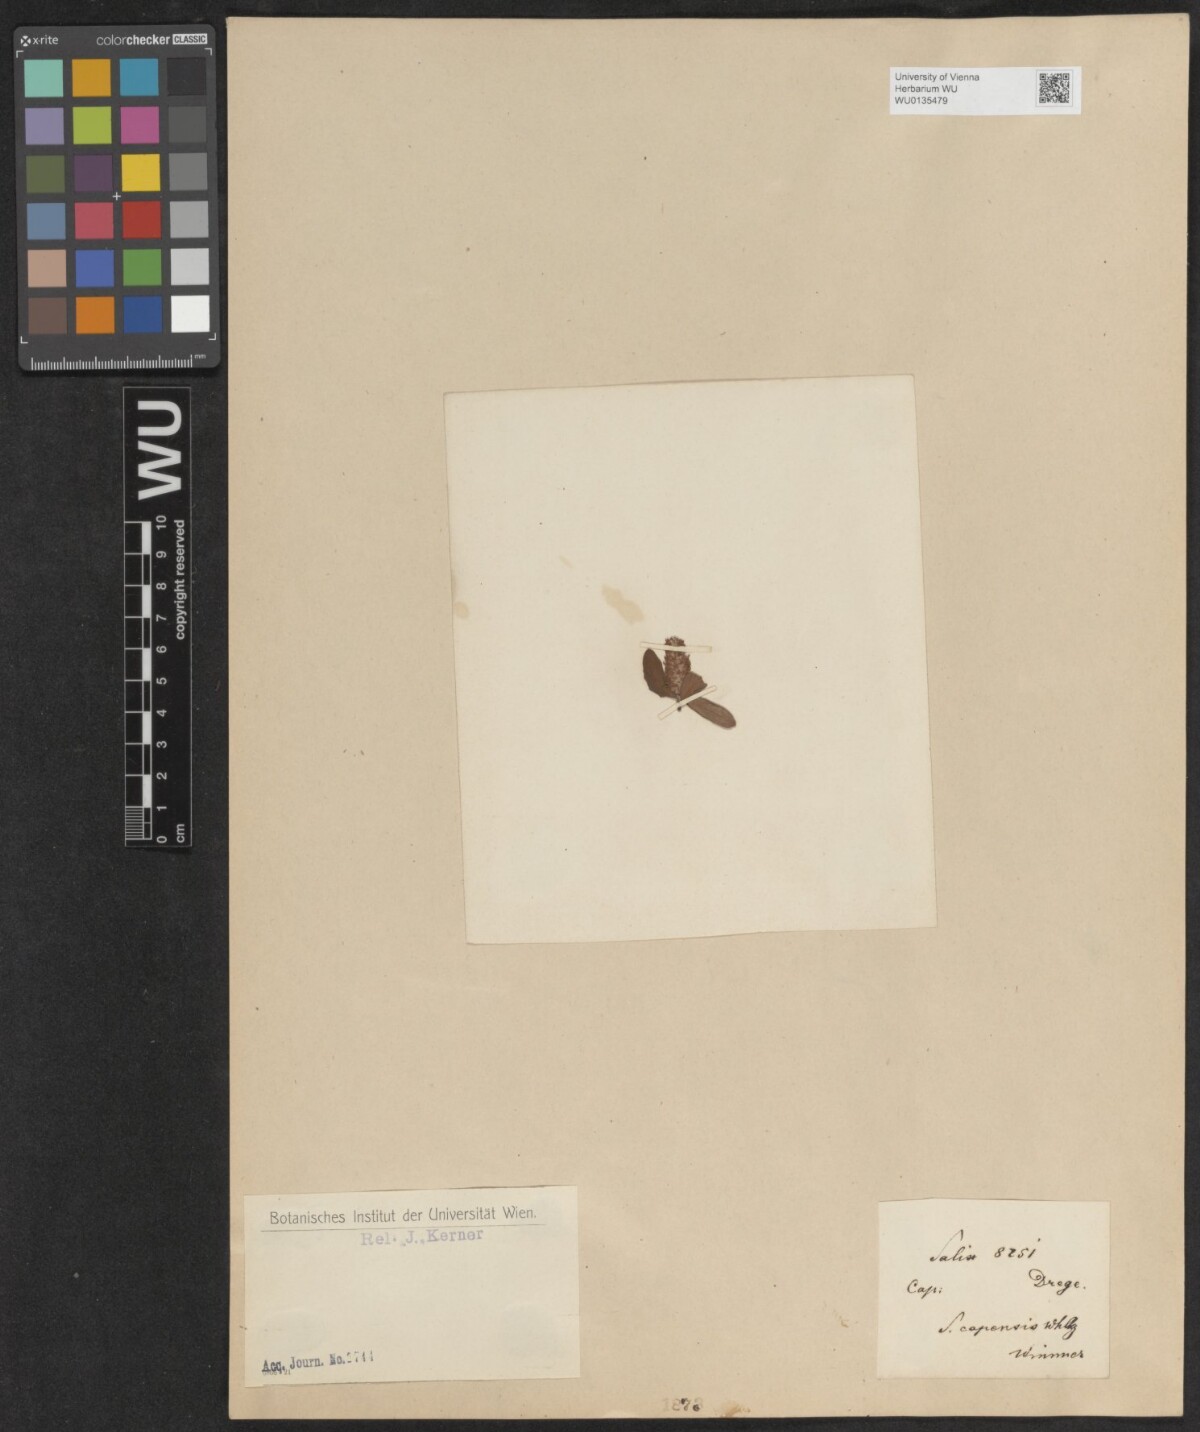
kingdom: Plantae
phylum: Tracheophyta
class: Magnoliopsida
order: Malpighiales
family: Salicaceae
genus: Salix
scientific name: Salix mucronata
